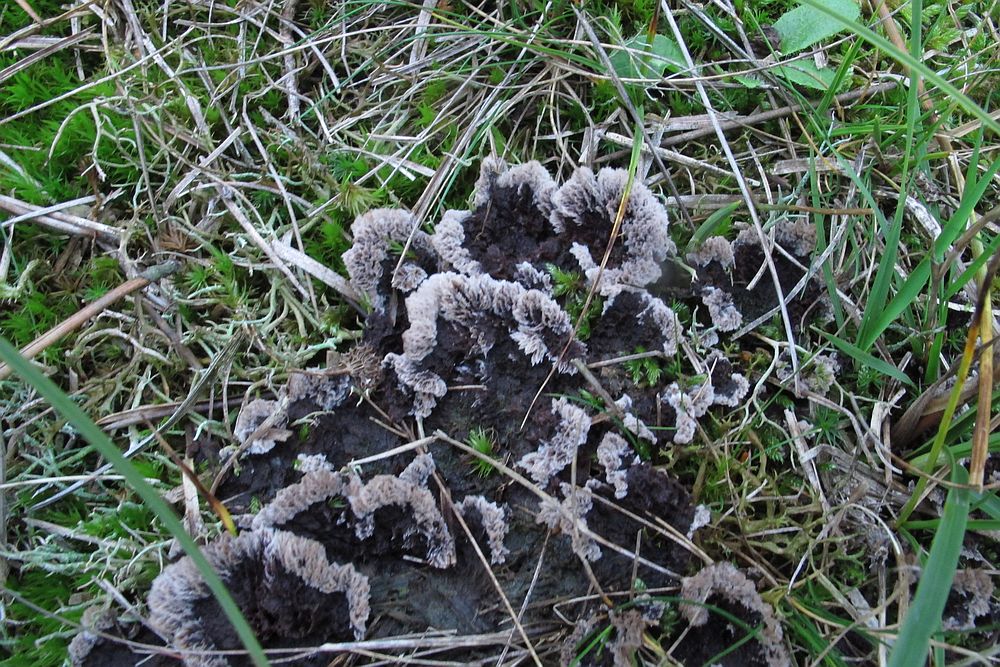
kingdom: Fungi
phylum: Basidiomycota
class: Agaricomycetes
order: Thelephorales
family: Thelephoraceae
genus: Thelephora
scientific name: Thelephora terrestris
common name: fliget frynsesvamp
